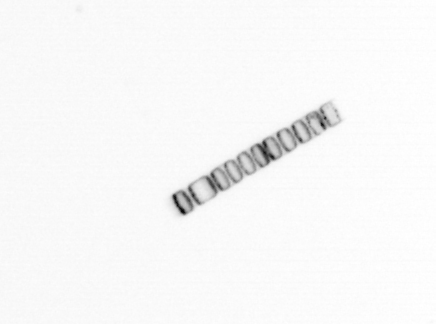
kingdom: Chromista
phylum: Ochrophyta
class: Bacillariophyceae
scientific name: Bacillariophyceae
